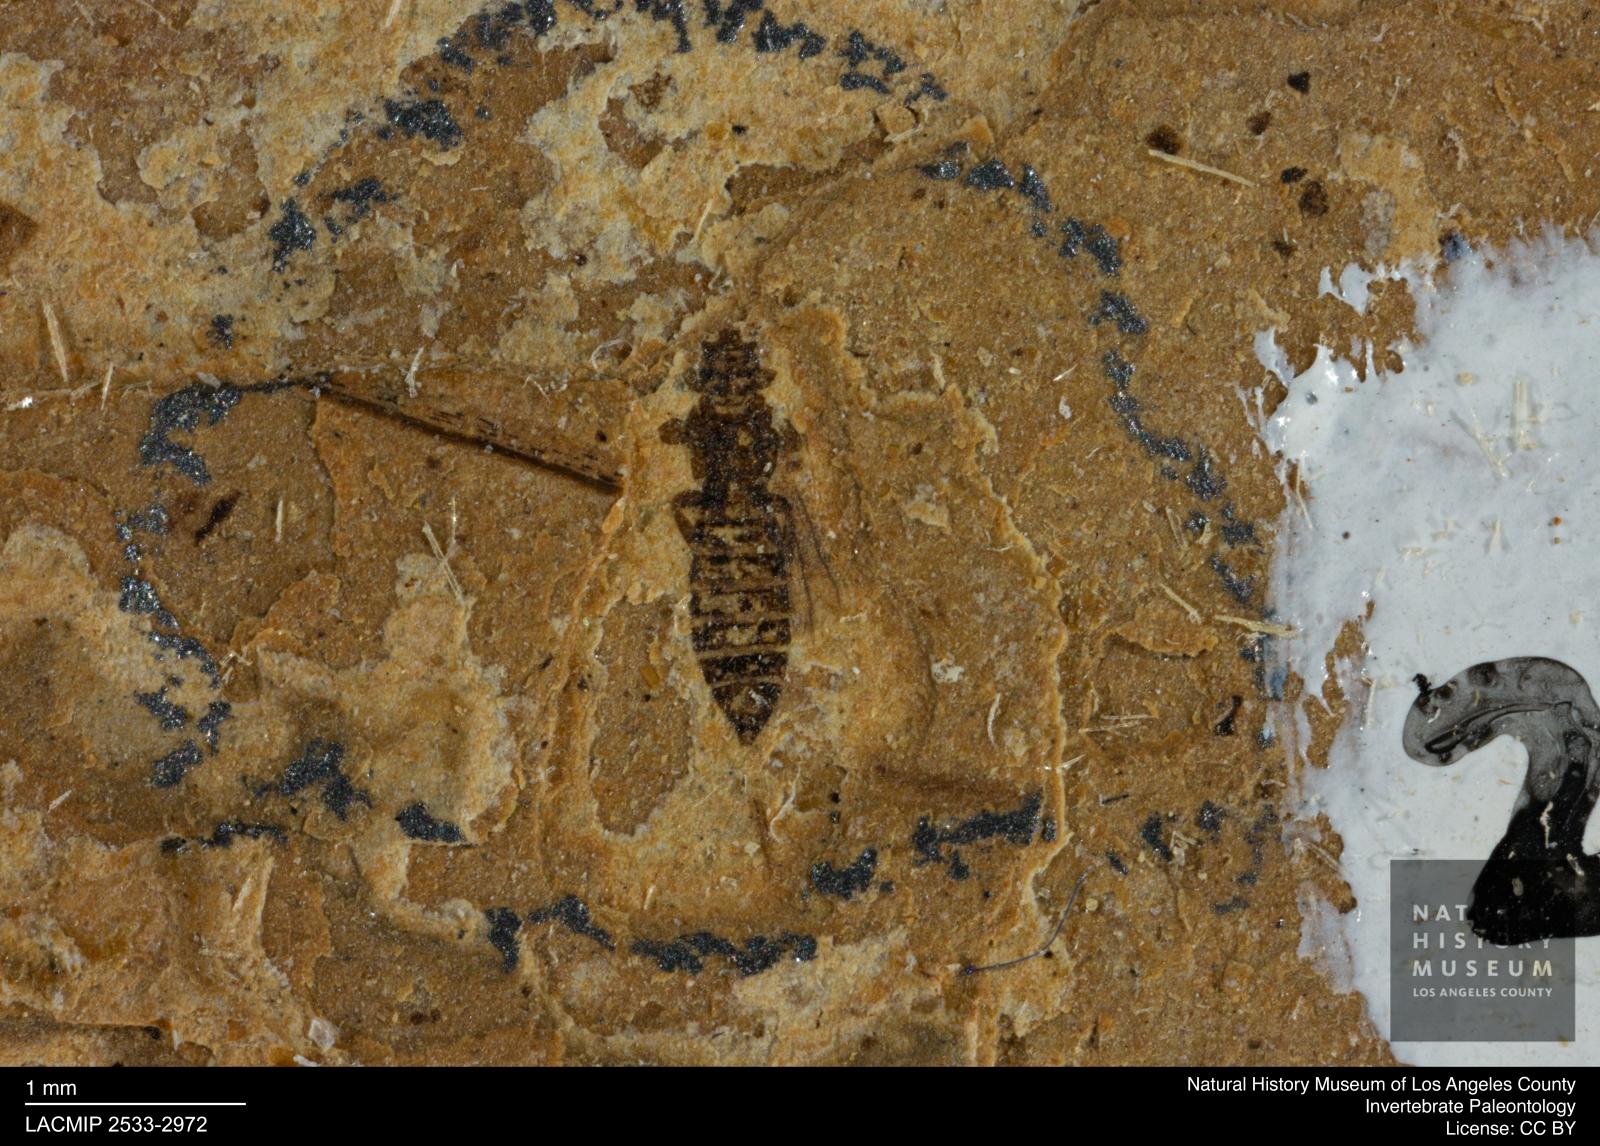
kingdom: Animalia
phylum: Arthropoda
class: Insecta
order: Thysanoptera
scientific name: Thysanoptera
